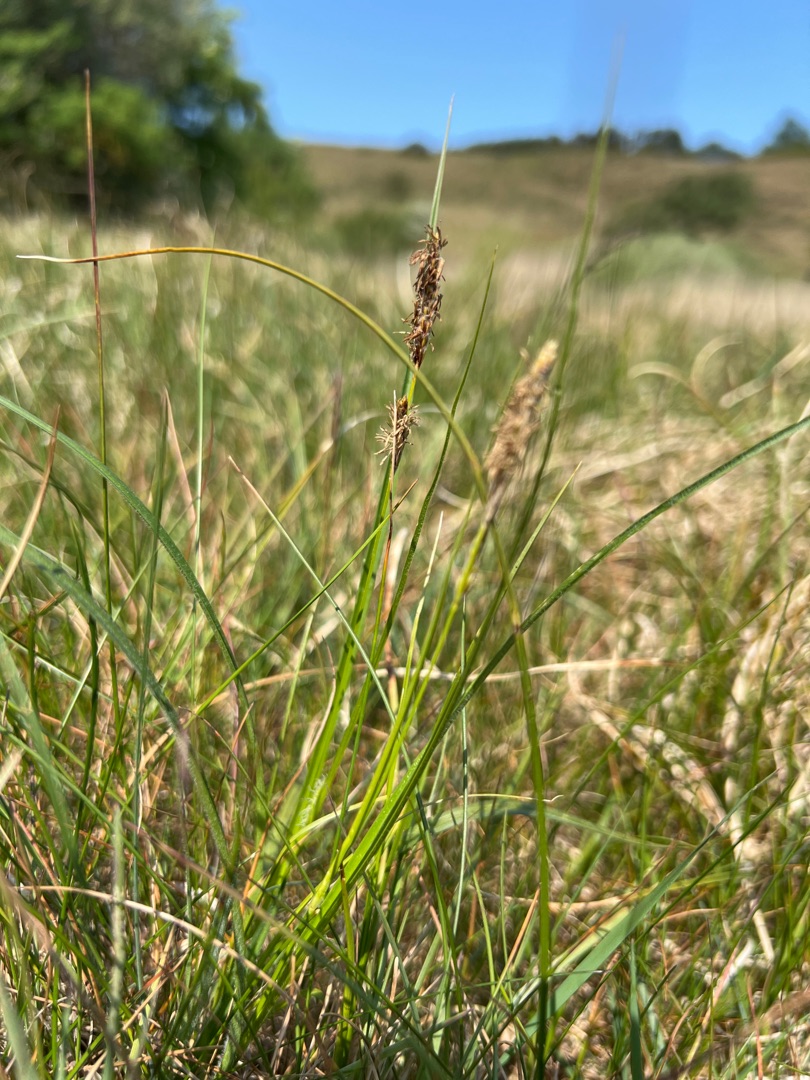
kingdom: Plantae
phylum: Tracheophyta
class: Liliopsida
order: Poales
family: Cyperaceae
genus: Carex
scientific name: Carex hirta
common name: Håret star
